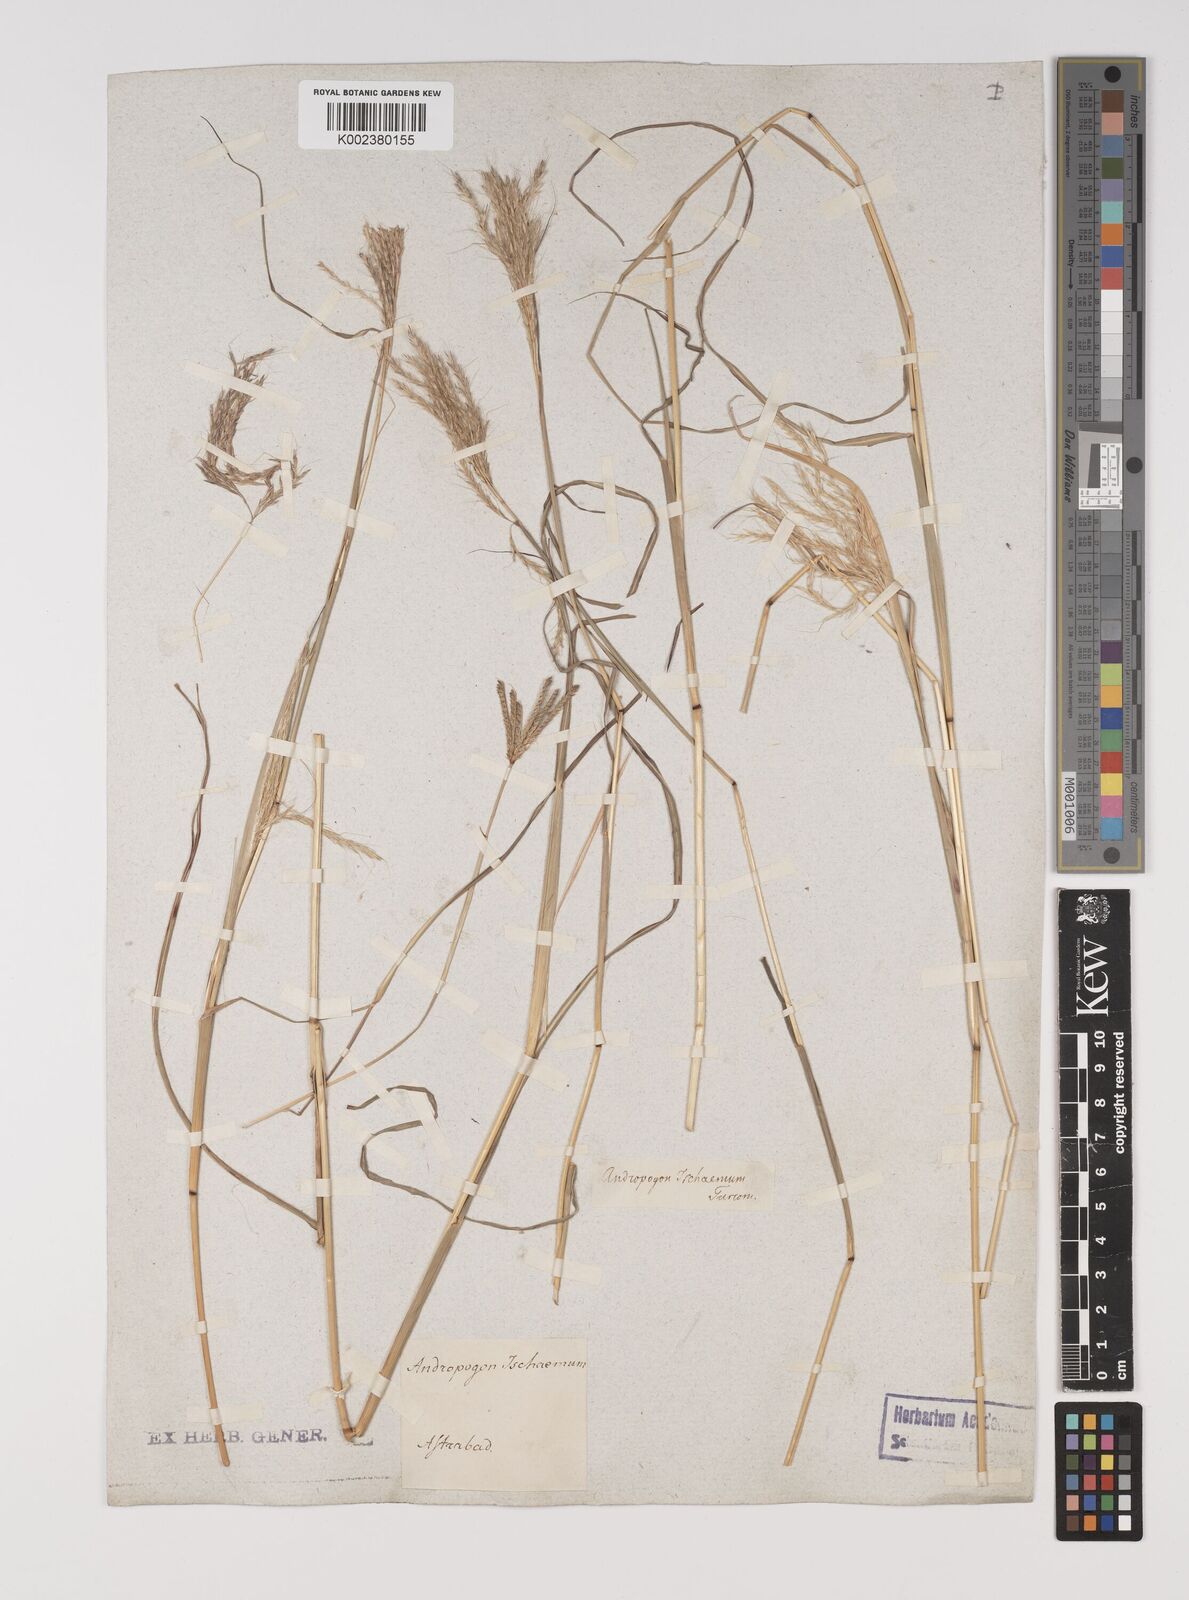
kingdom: Plantae
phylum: Tracheophyta
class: Liliopsida
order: Poales
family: Poaceae
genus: Bothriochloa
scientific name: Bothriochloa ischaemum
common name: Yellow bluestem
